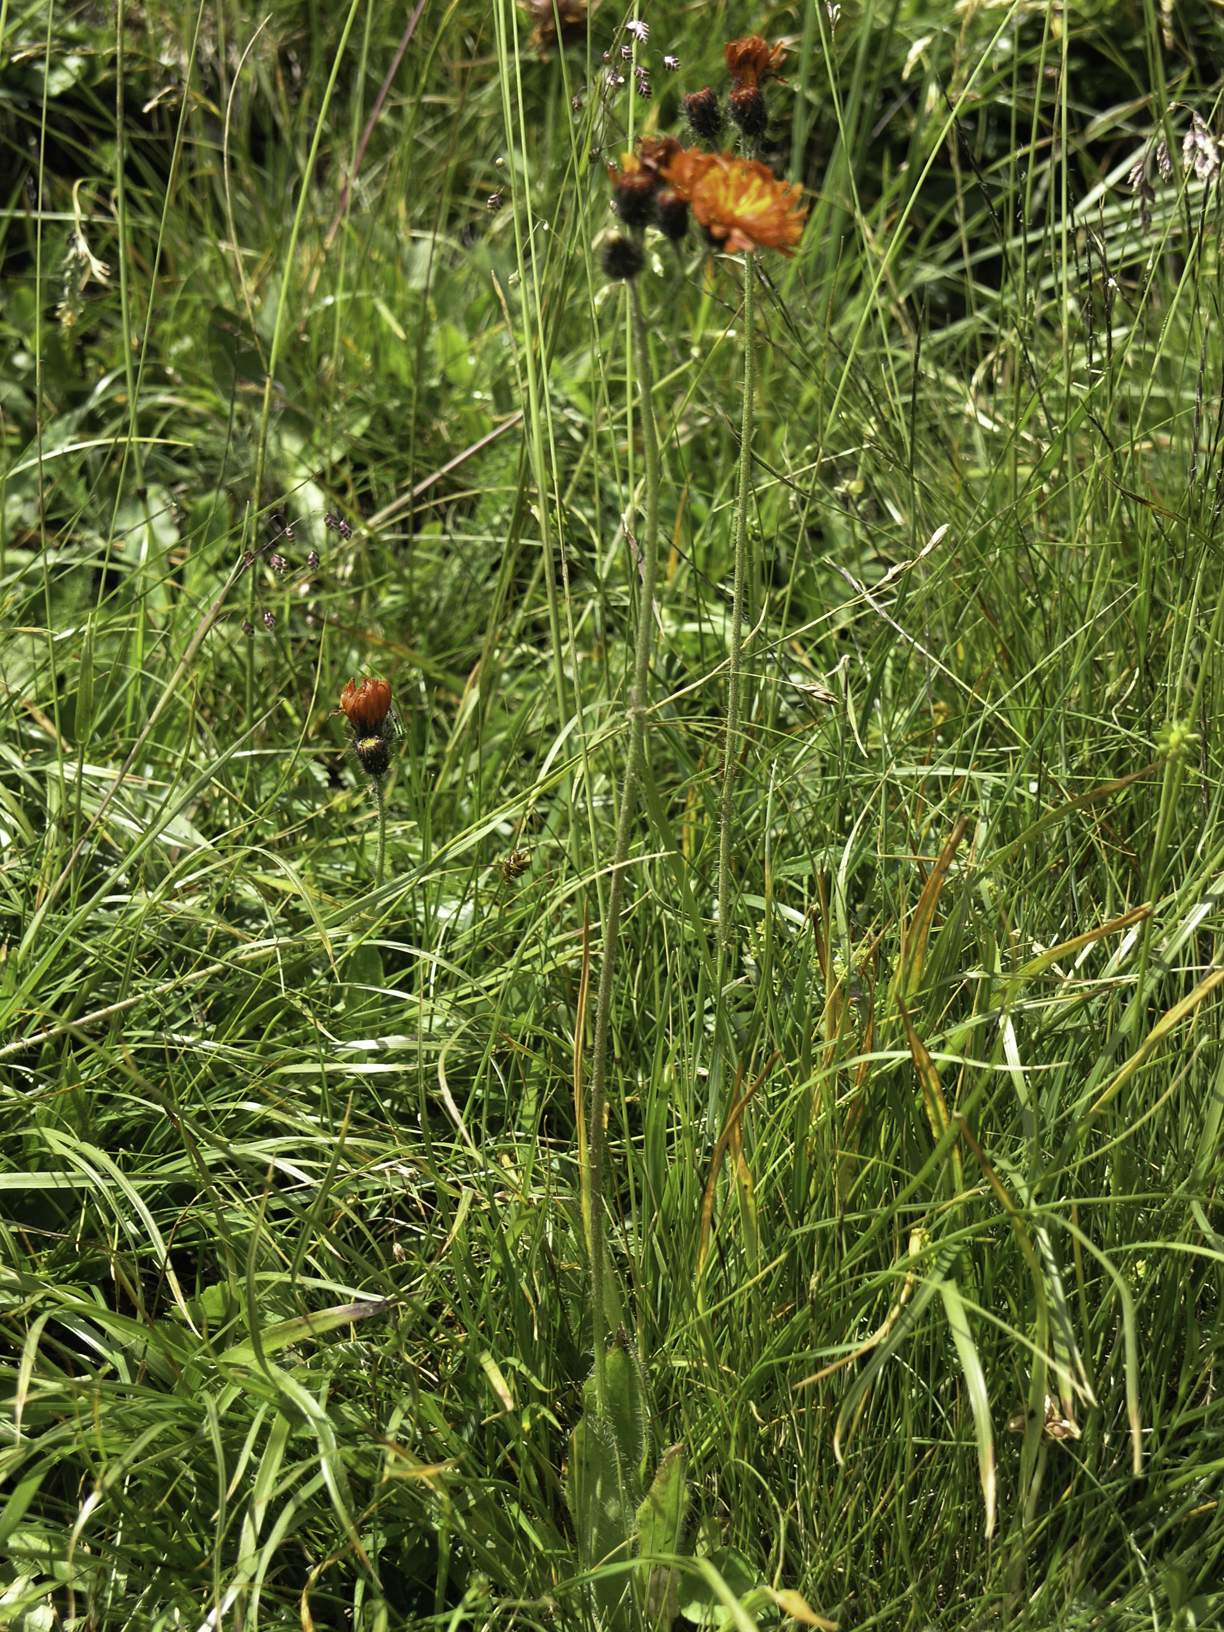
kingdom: Plantae
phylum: Tracheophyta
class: Magnoliopsida
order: Asterales
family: Asteraceae
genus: Pilosella
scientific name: Pilosella aurantiaca
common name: Fox-and-cubs
